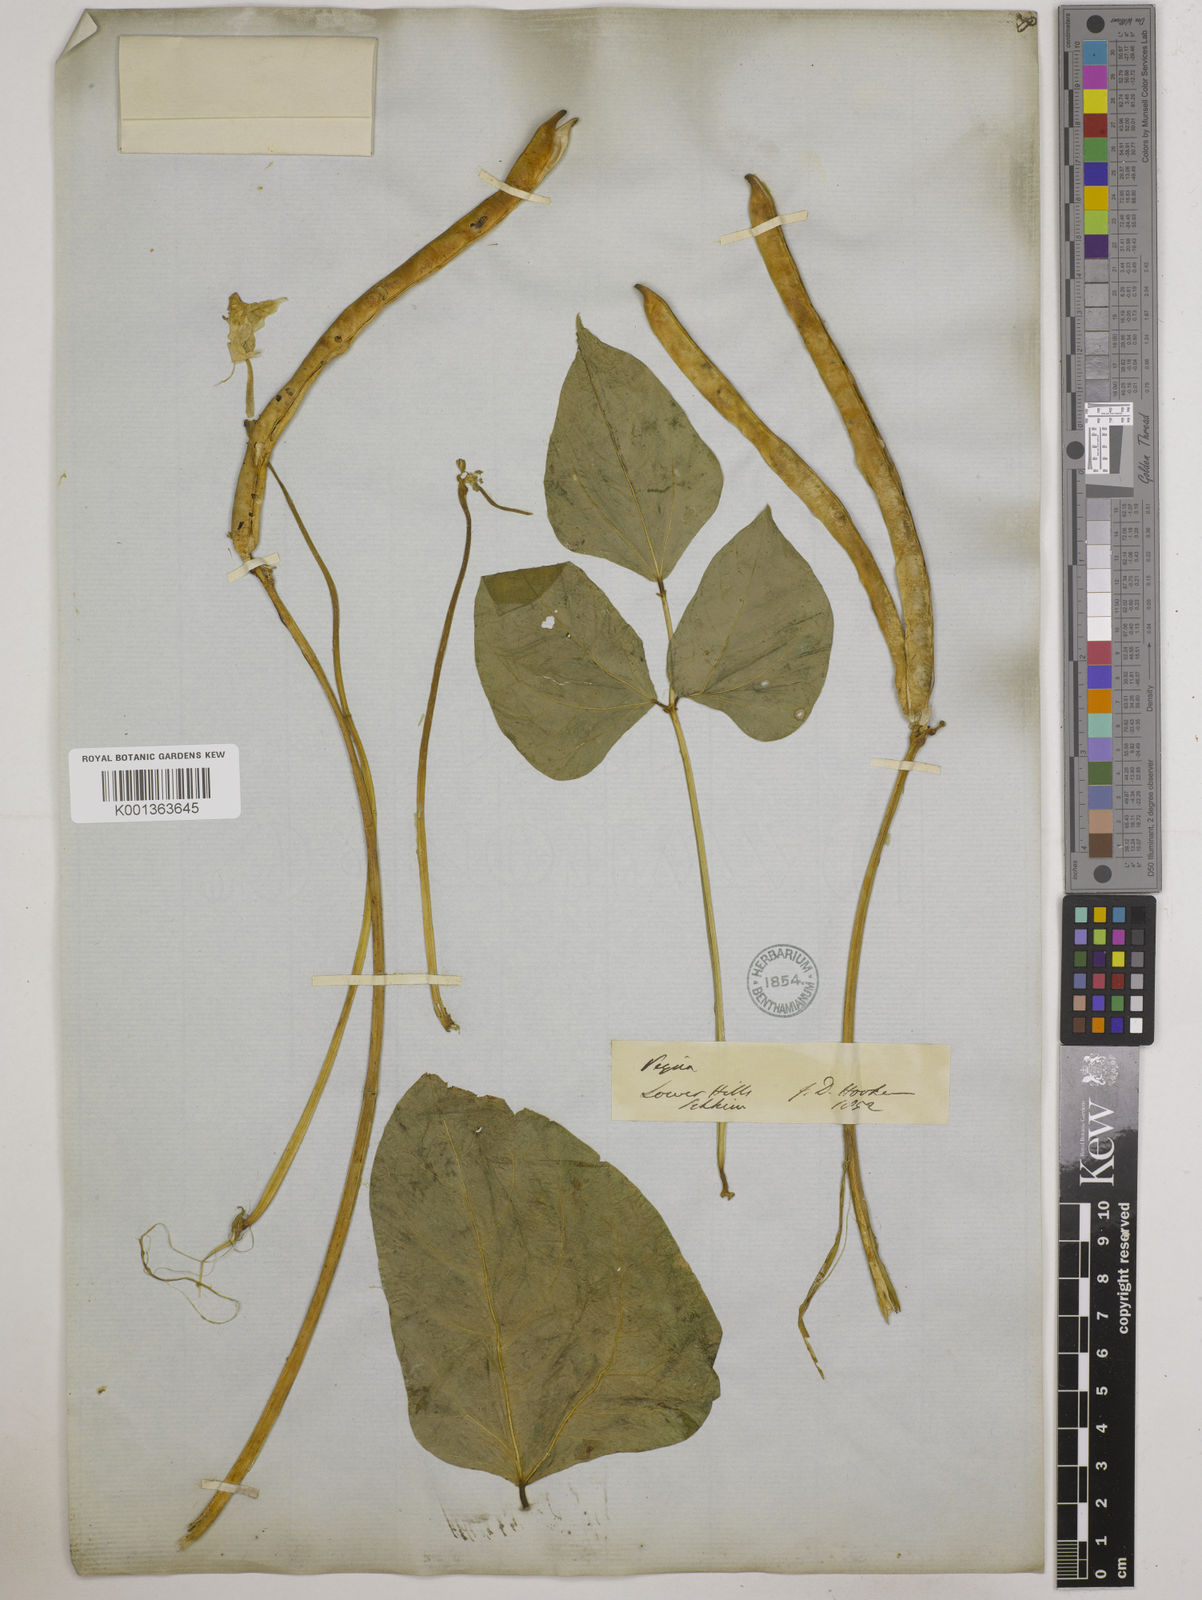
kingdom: Plantae
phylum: Tracheophyta
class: Magnoliopsida
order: Fabales
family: Fabaceae
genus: Vigna
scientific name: Vigna unguiculata
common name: Cowpea
